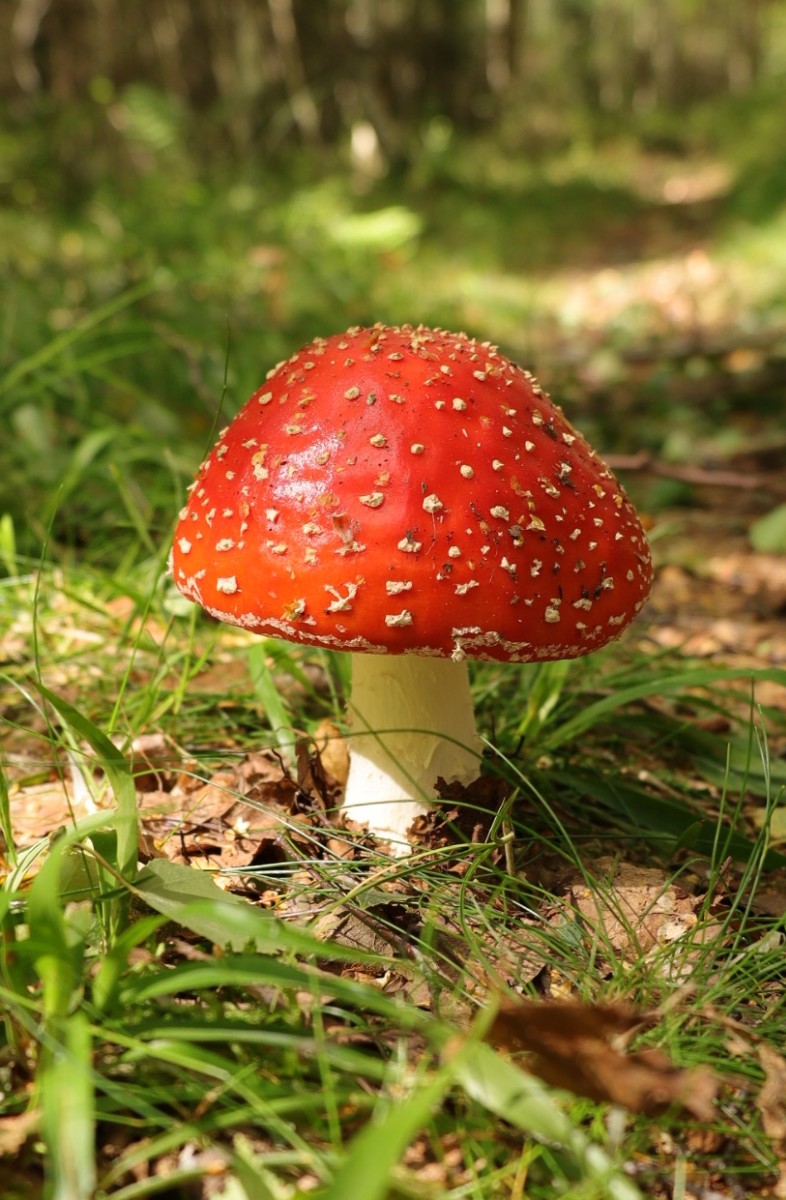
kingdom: Fungi
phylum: Basidiomycota
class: Agaricomycetes
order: Agaricales
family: Amanitaceae
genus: Amanita
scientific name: Amanita muscaria
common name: rød fluesvamp
